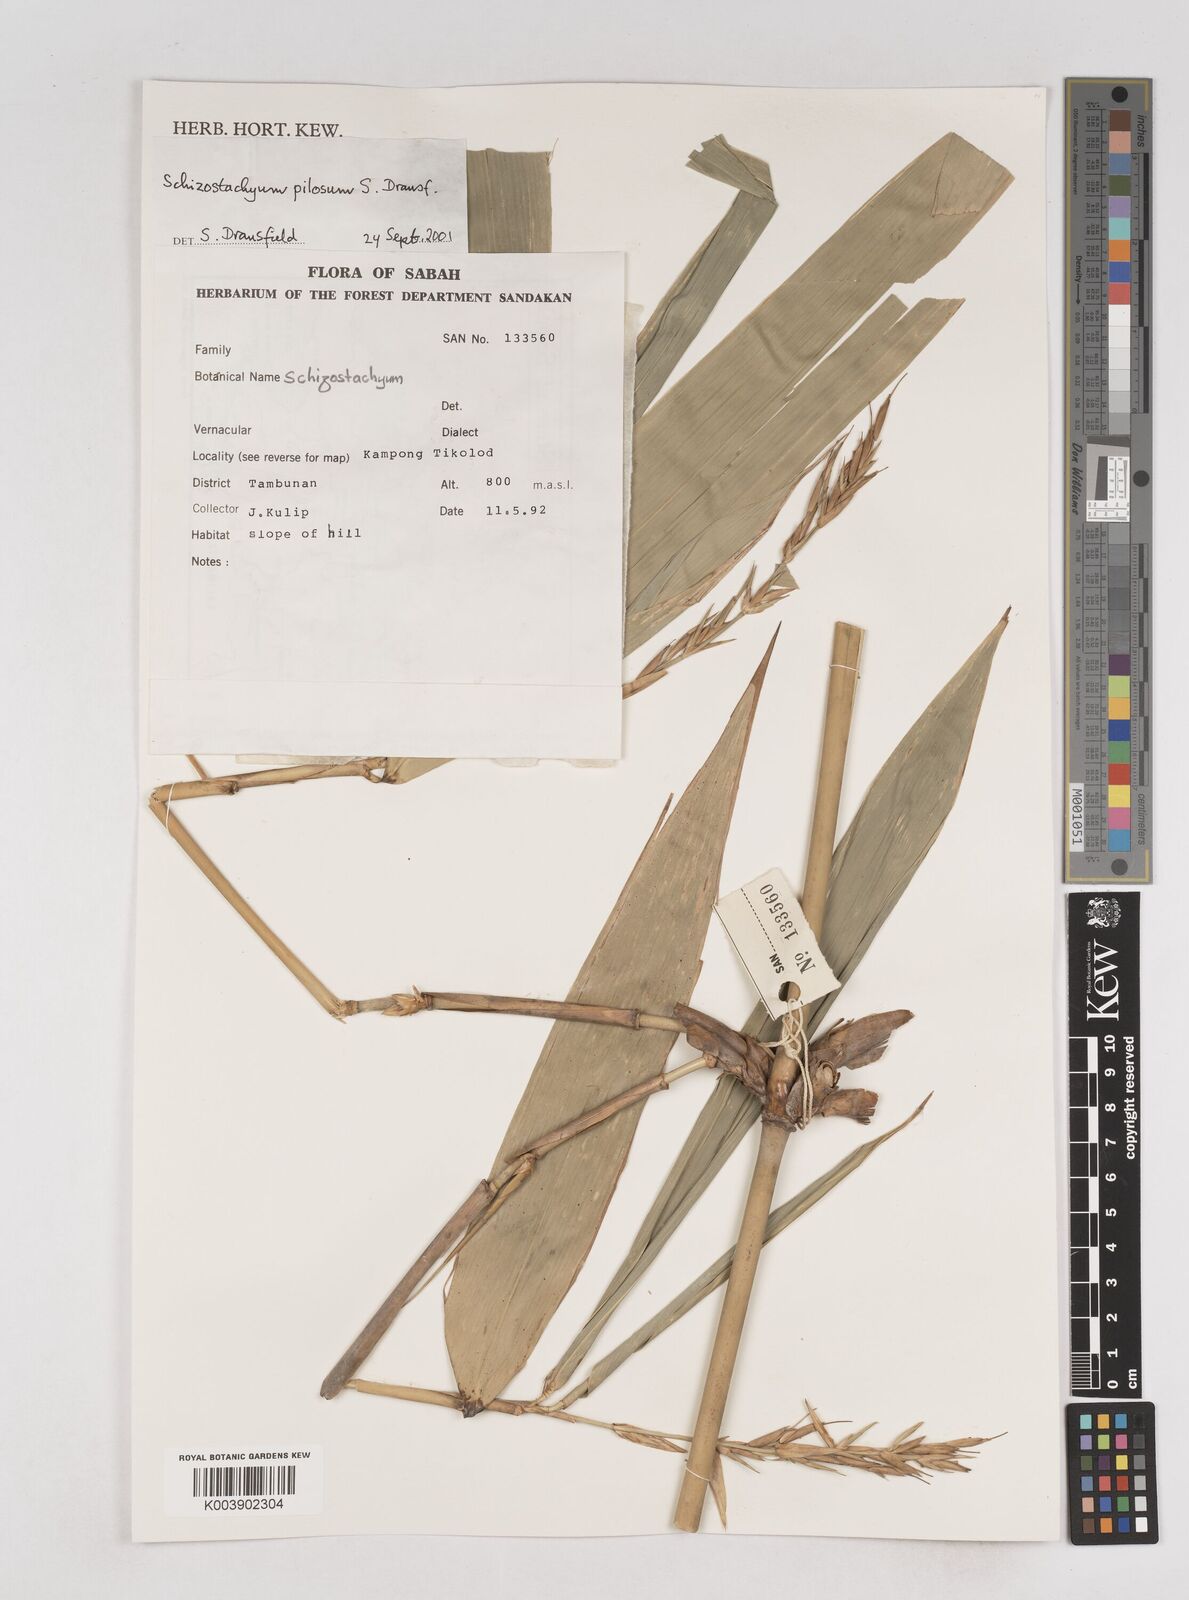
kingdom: Plantae
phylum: Tracheophyta
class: Liliopsida
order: Poales
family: Poaceae
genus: Schizostachyum
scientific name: Schizostachyum pilosum
